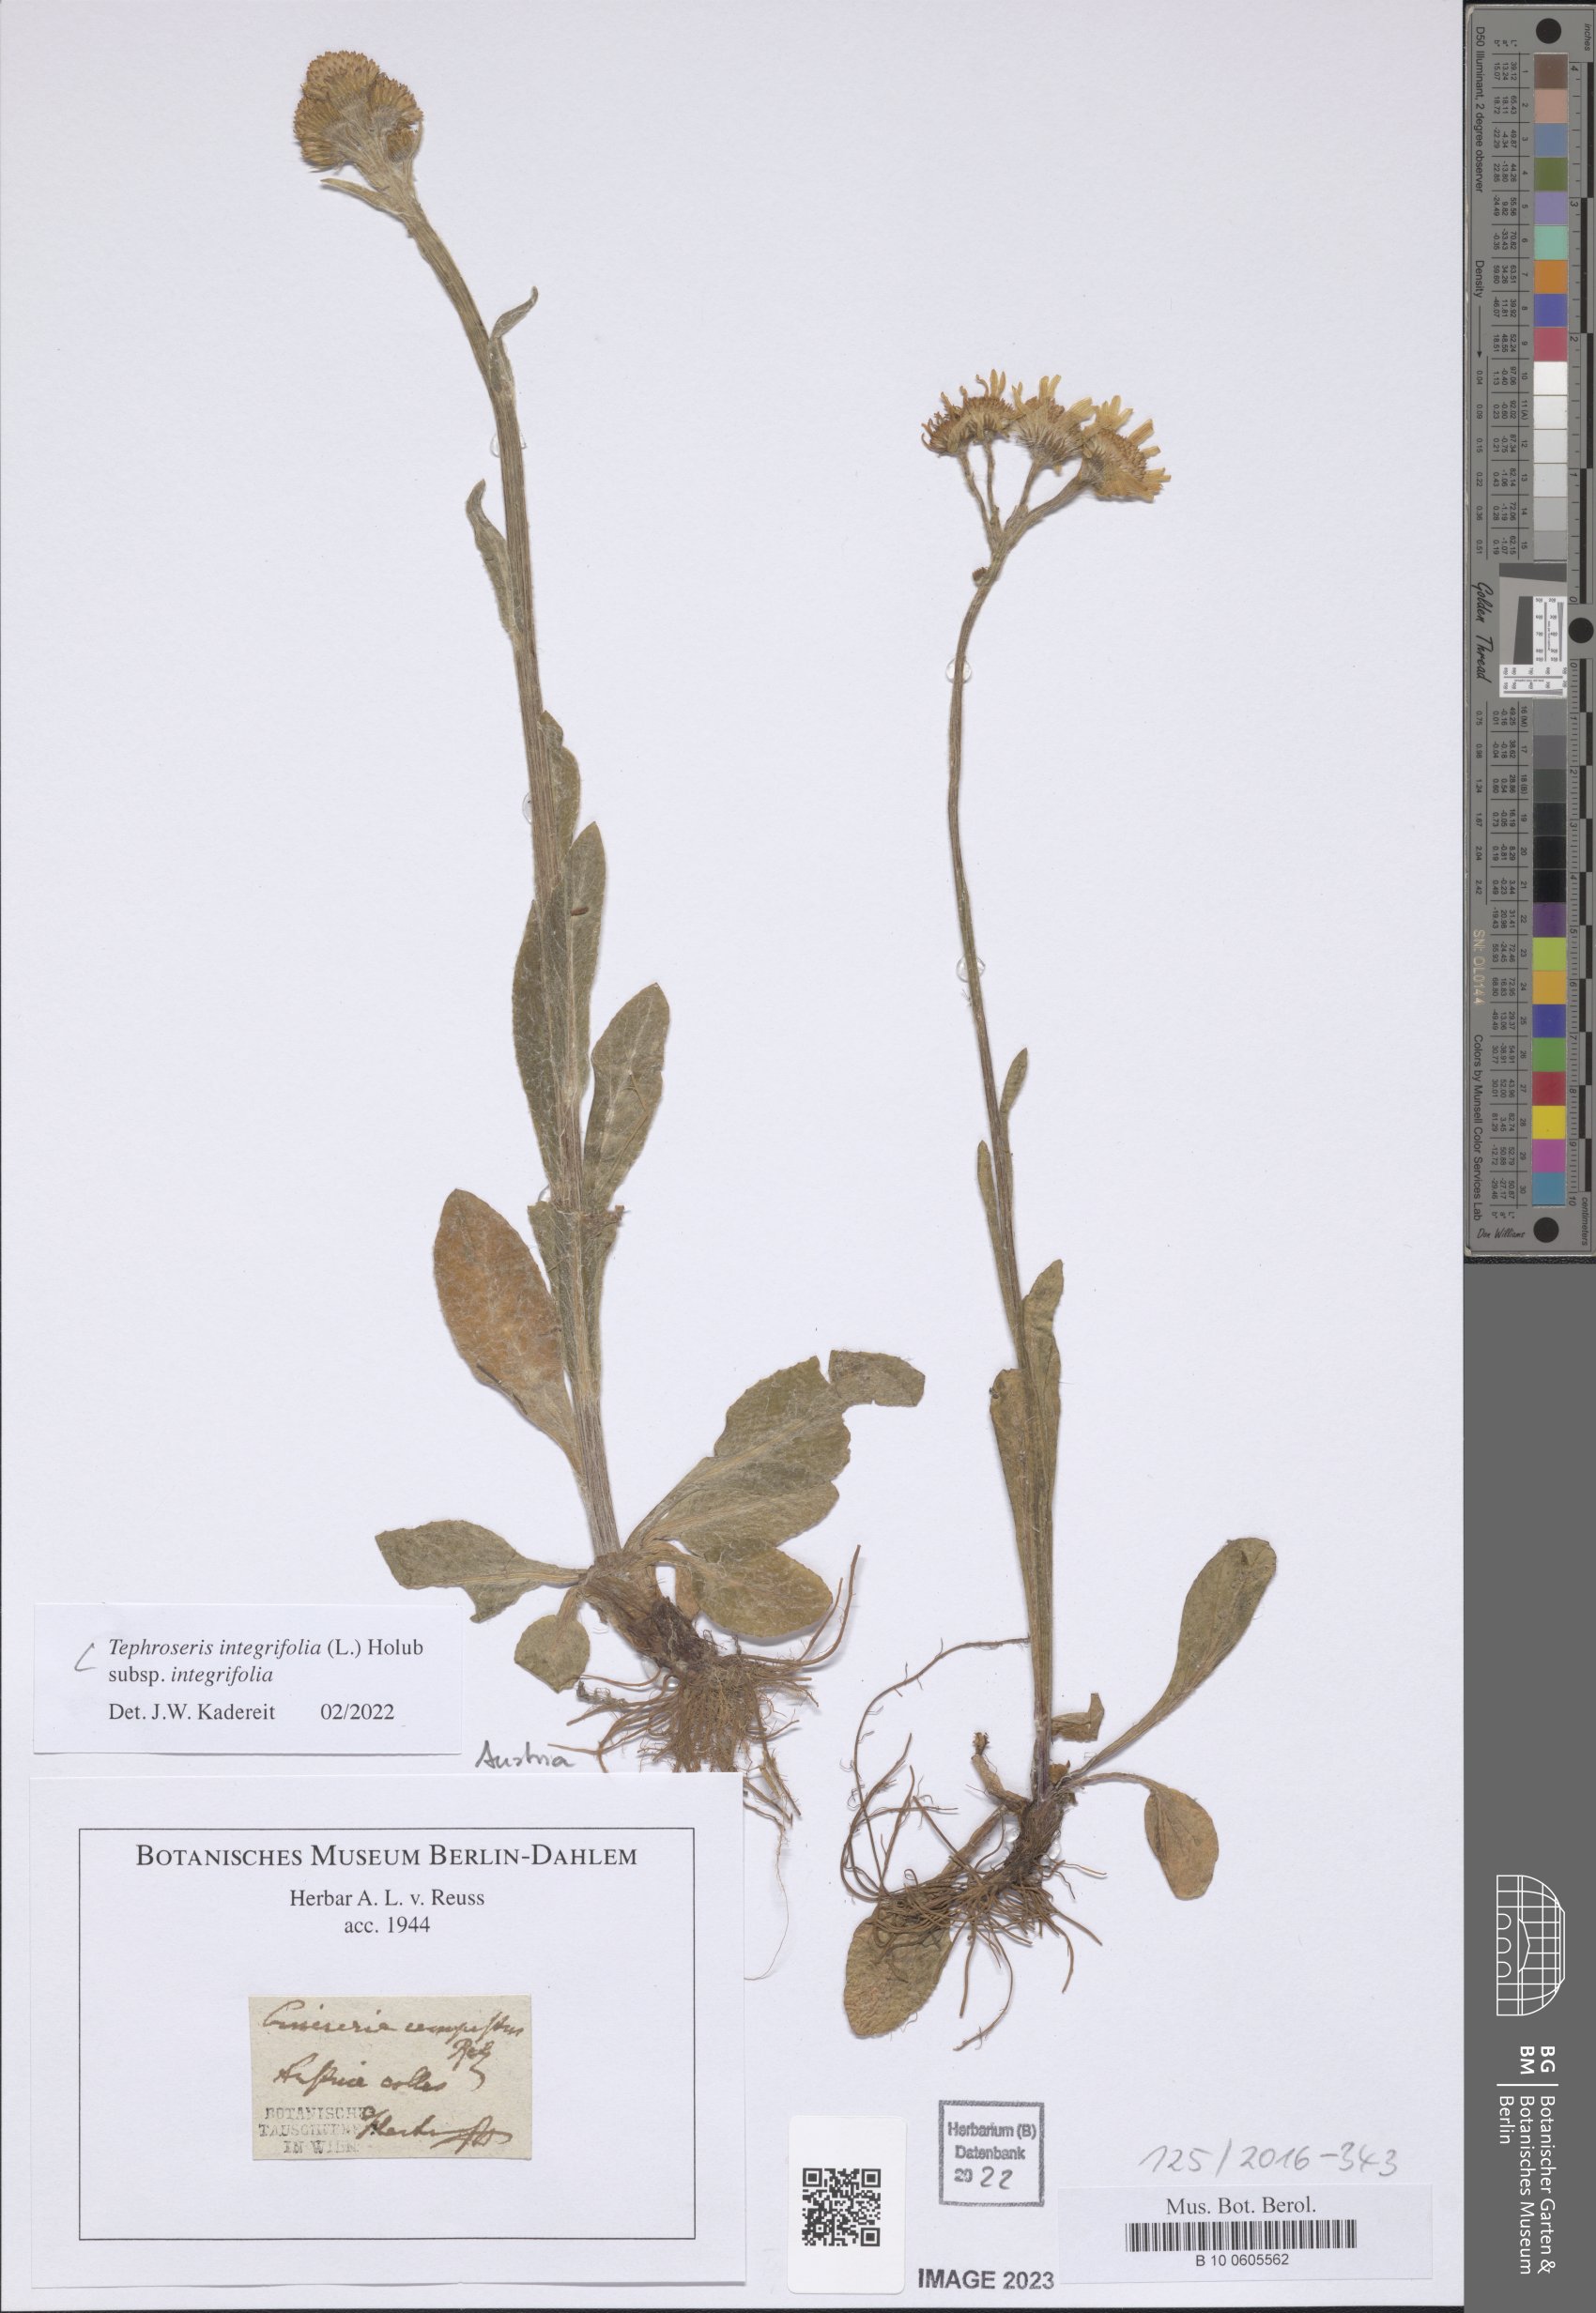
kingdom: Plantae
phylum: Tracheophyta
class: Magnoliopsida
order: Asterales
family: Asteraceae
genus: Tephroseris
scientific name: Tephroseris integrifolia
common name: Field fleawort
